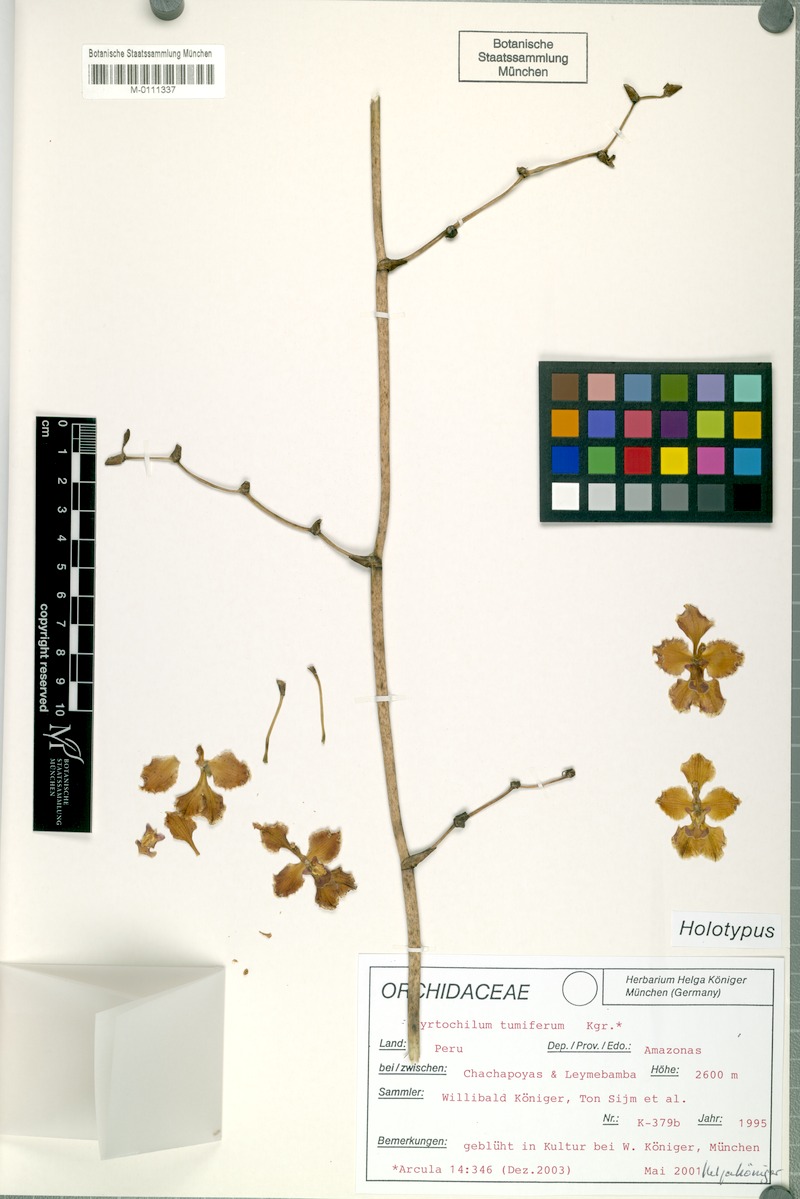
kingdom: Plantae
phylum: Tracheophyta
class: Liliopsida
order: Asparagales
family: Orchidaceae
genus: Cyrtochilum
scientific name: Cyrtochilum tumiferum
